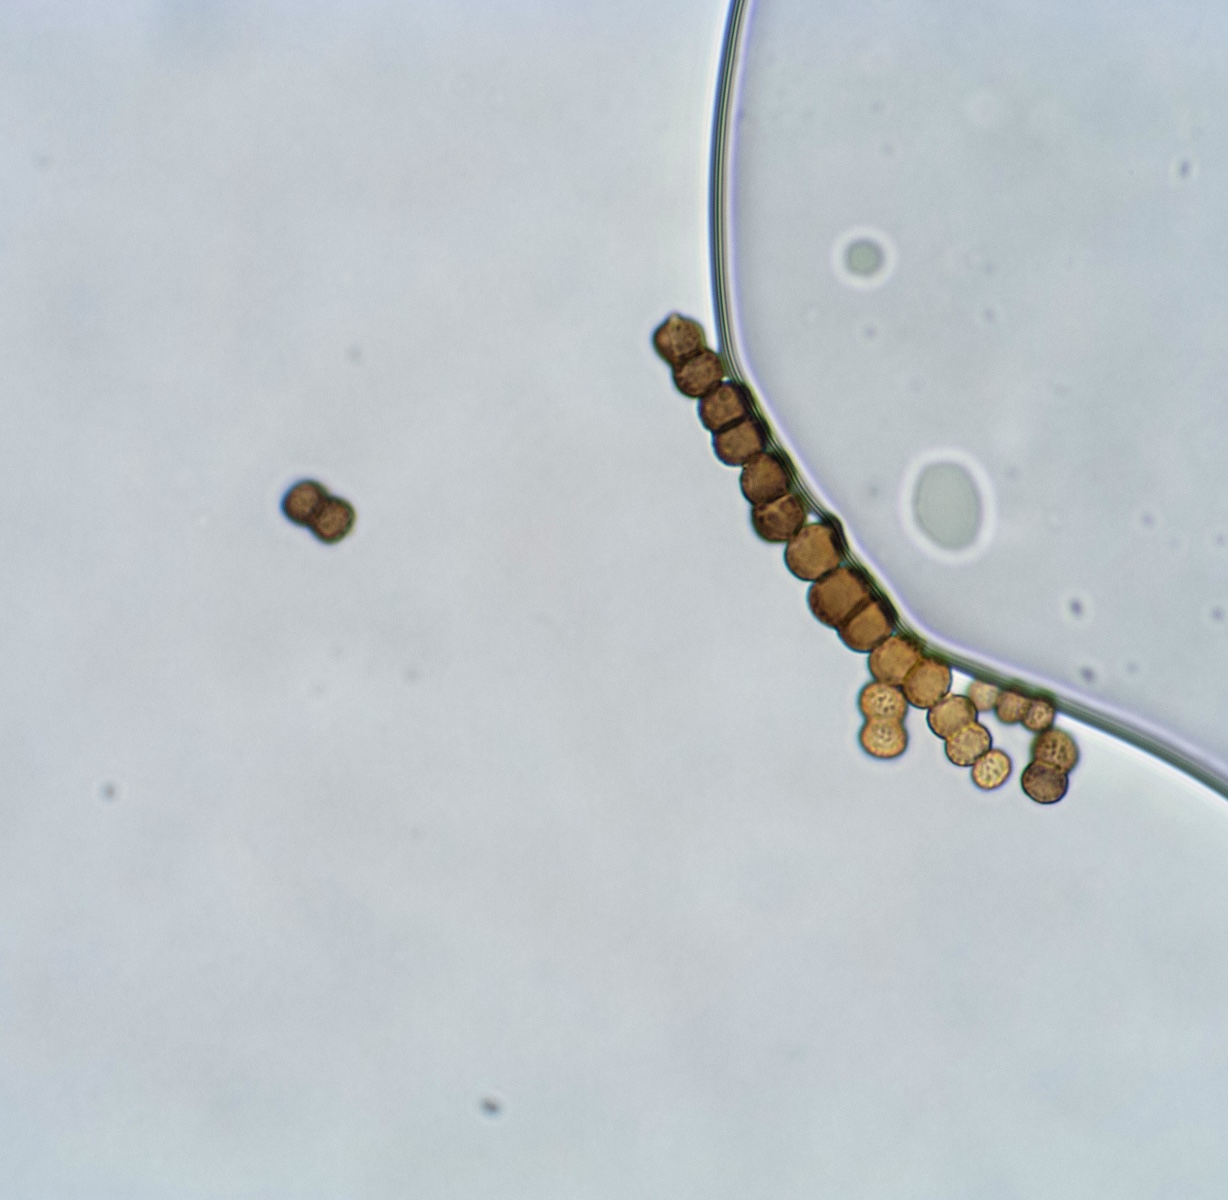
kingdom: Fungi
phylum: Ascomycota
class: Dothideomycetes
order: Pleosporales
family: Torulaceae
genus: Rutola
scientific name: Rutola graminis
